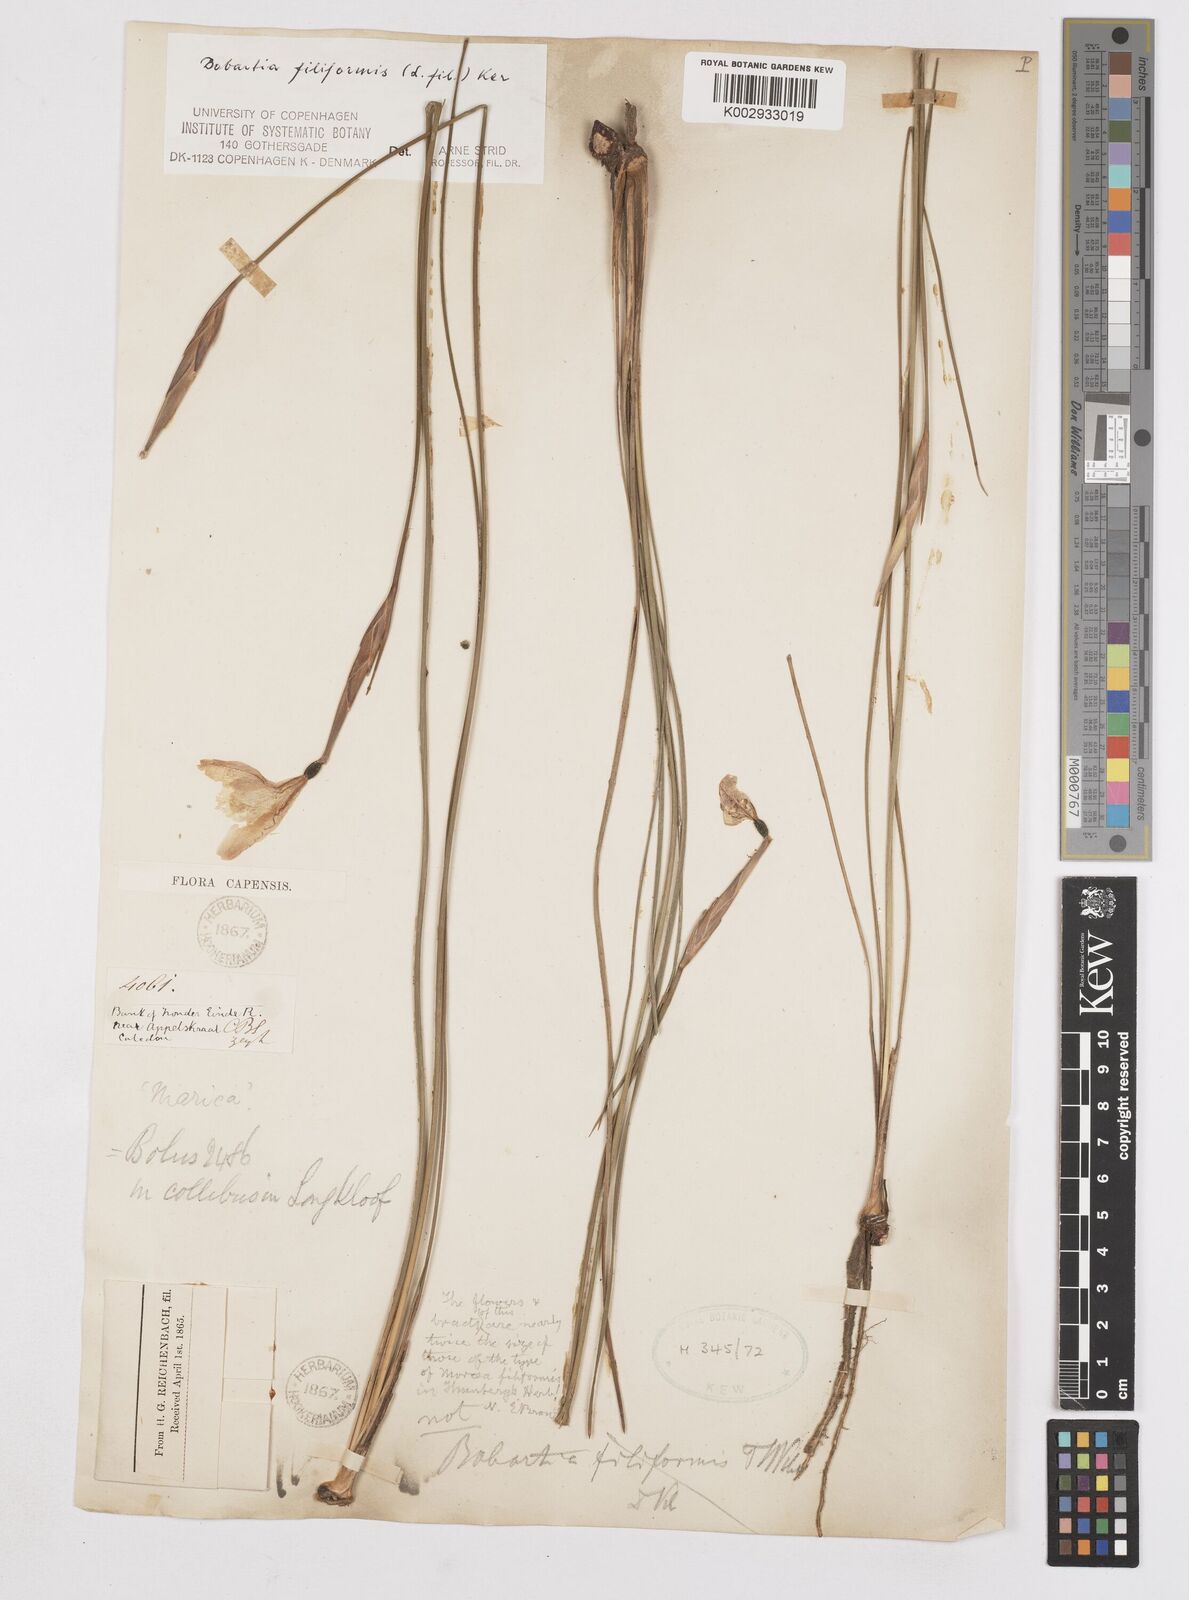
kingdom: Plantae
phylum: Tracheophyta
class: Liliopsida
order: Asparagales
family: Iridaceae
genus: Bobartia
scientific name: Bobartia filiformis
